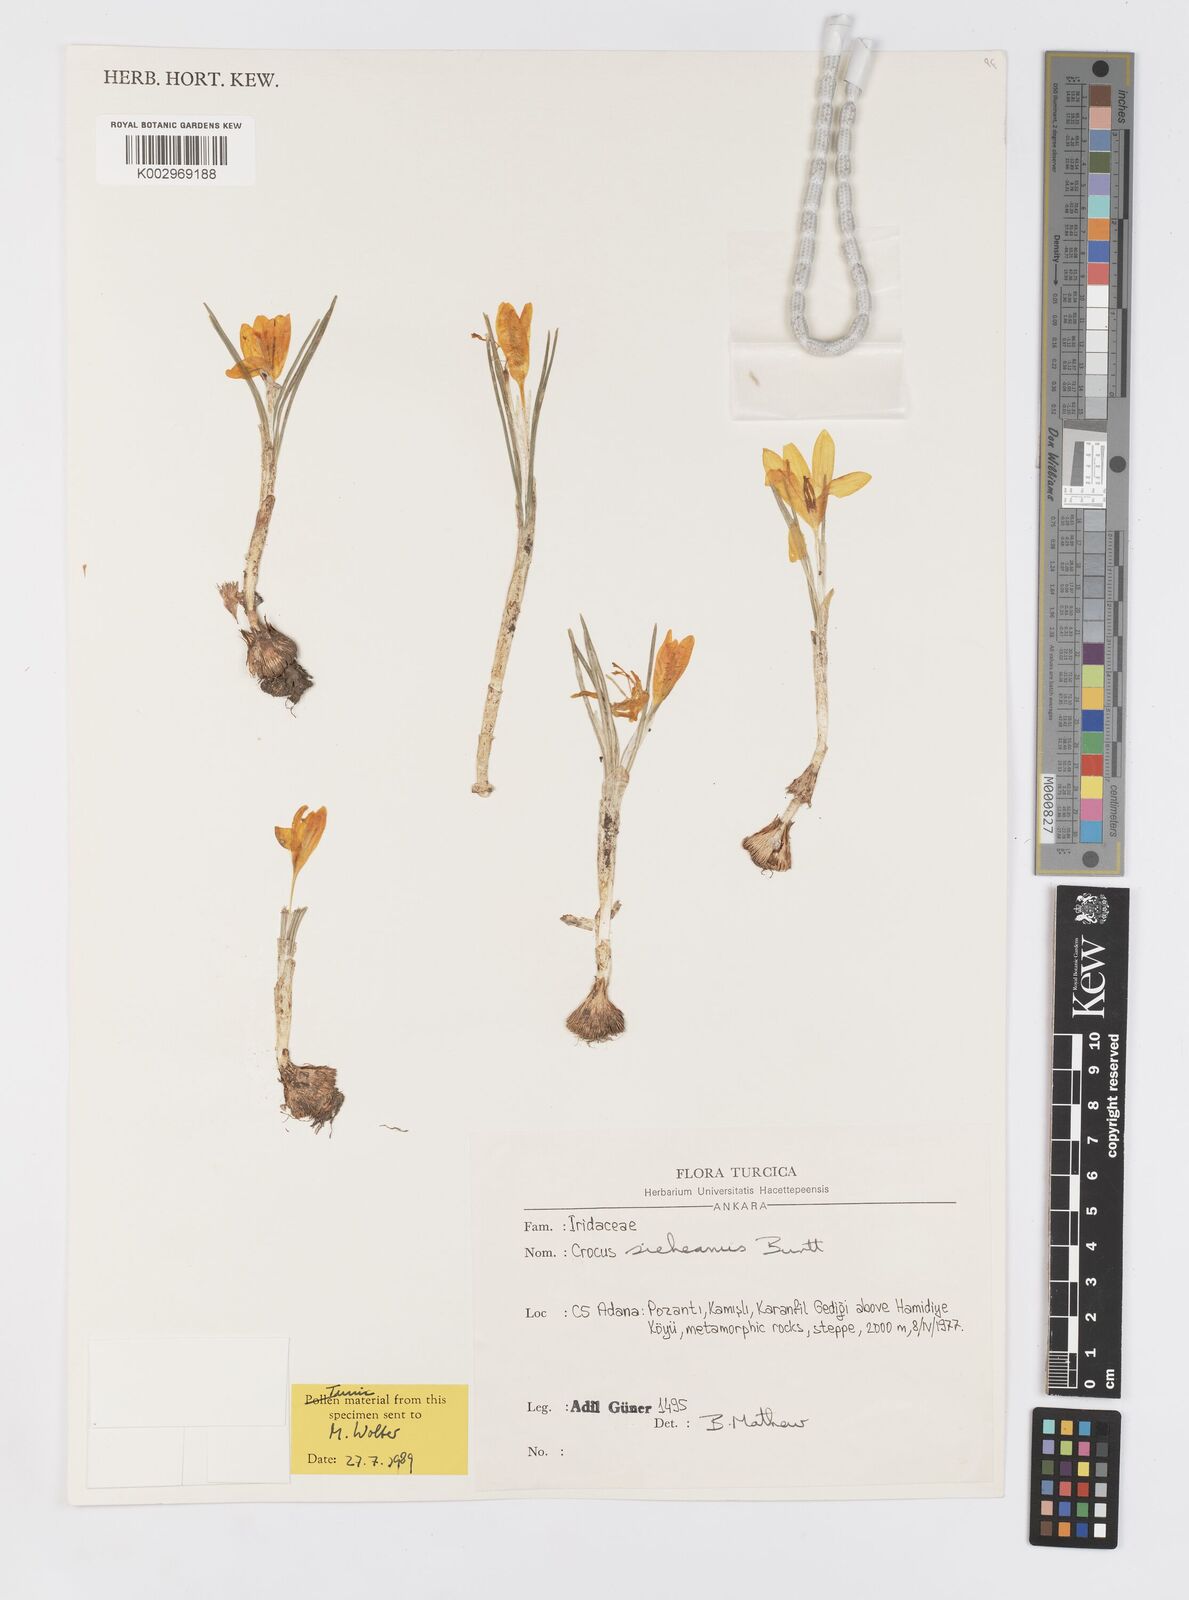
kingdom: Plantae
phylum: Tracheophyta
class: Liliopsida
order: Asparagales
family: Iridaceae
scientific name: Iridaceae
